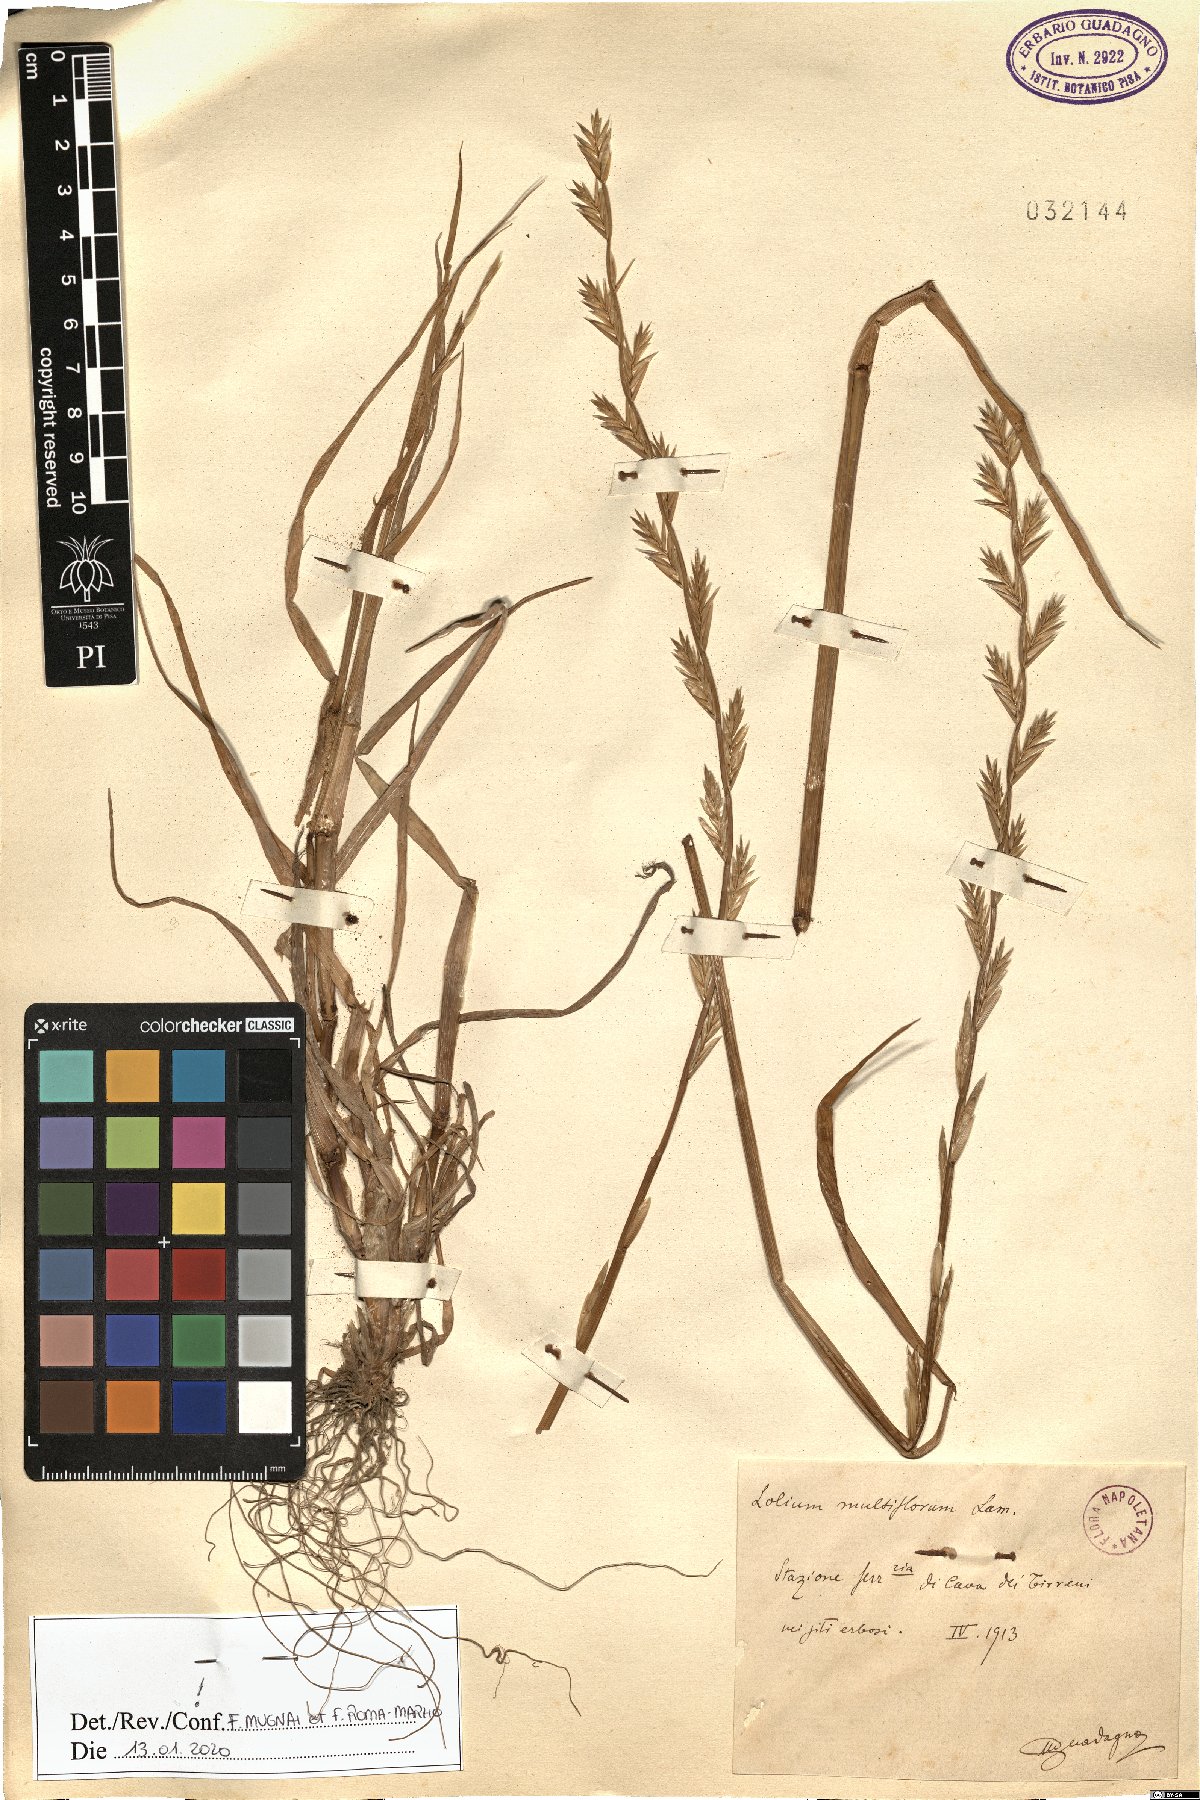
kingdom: Plantae
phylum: Tracheophyta
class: Liliopsida
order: Poales
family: Poaceae
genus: Lolium
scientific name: Lolium multiflorum
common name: Annual ryegrass
